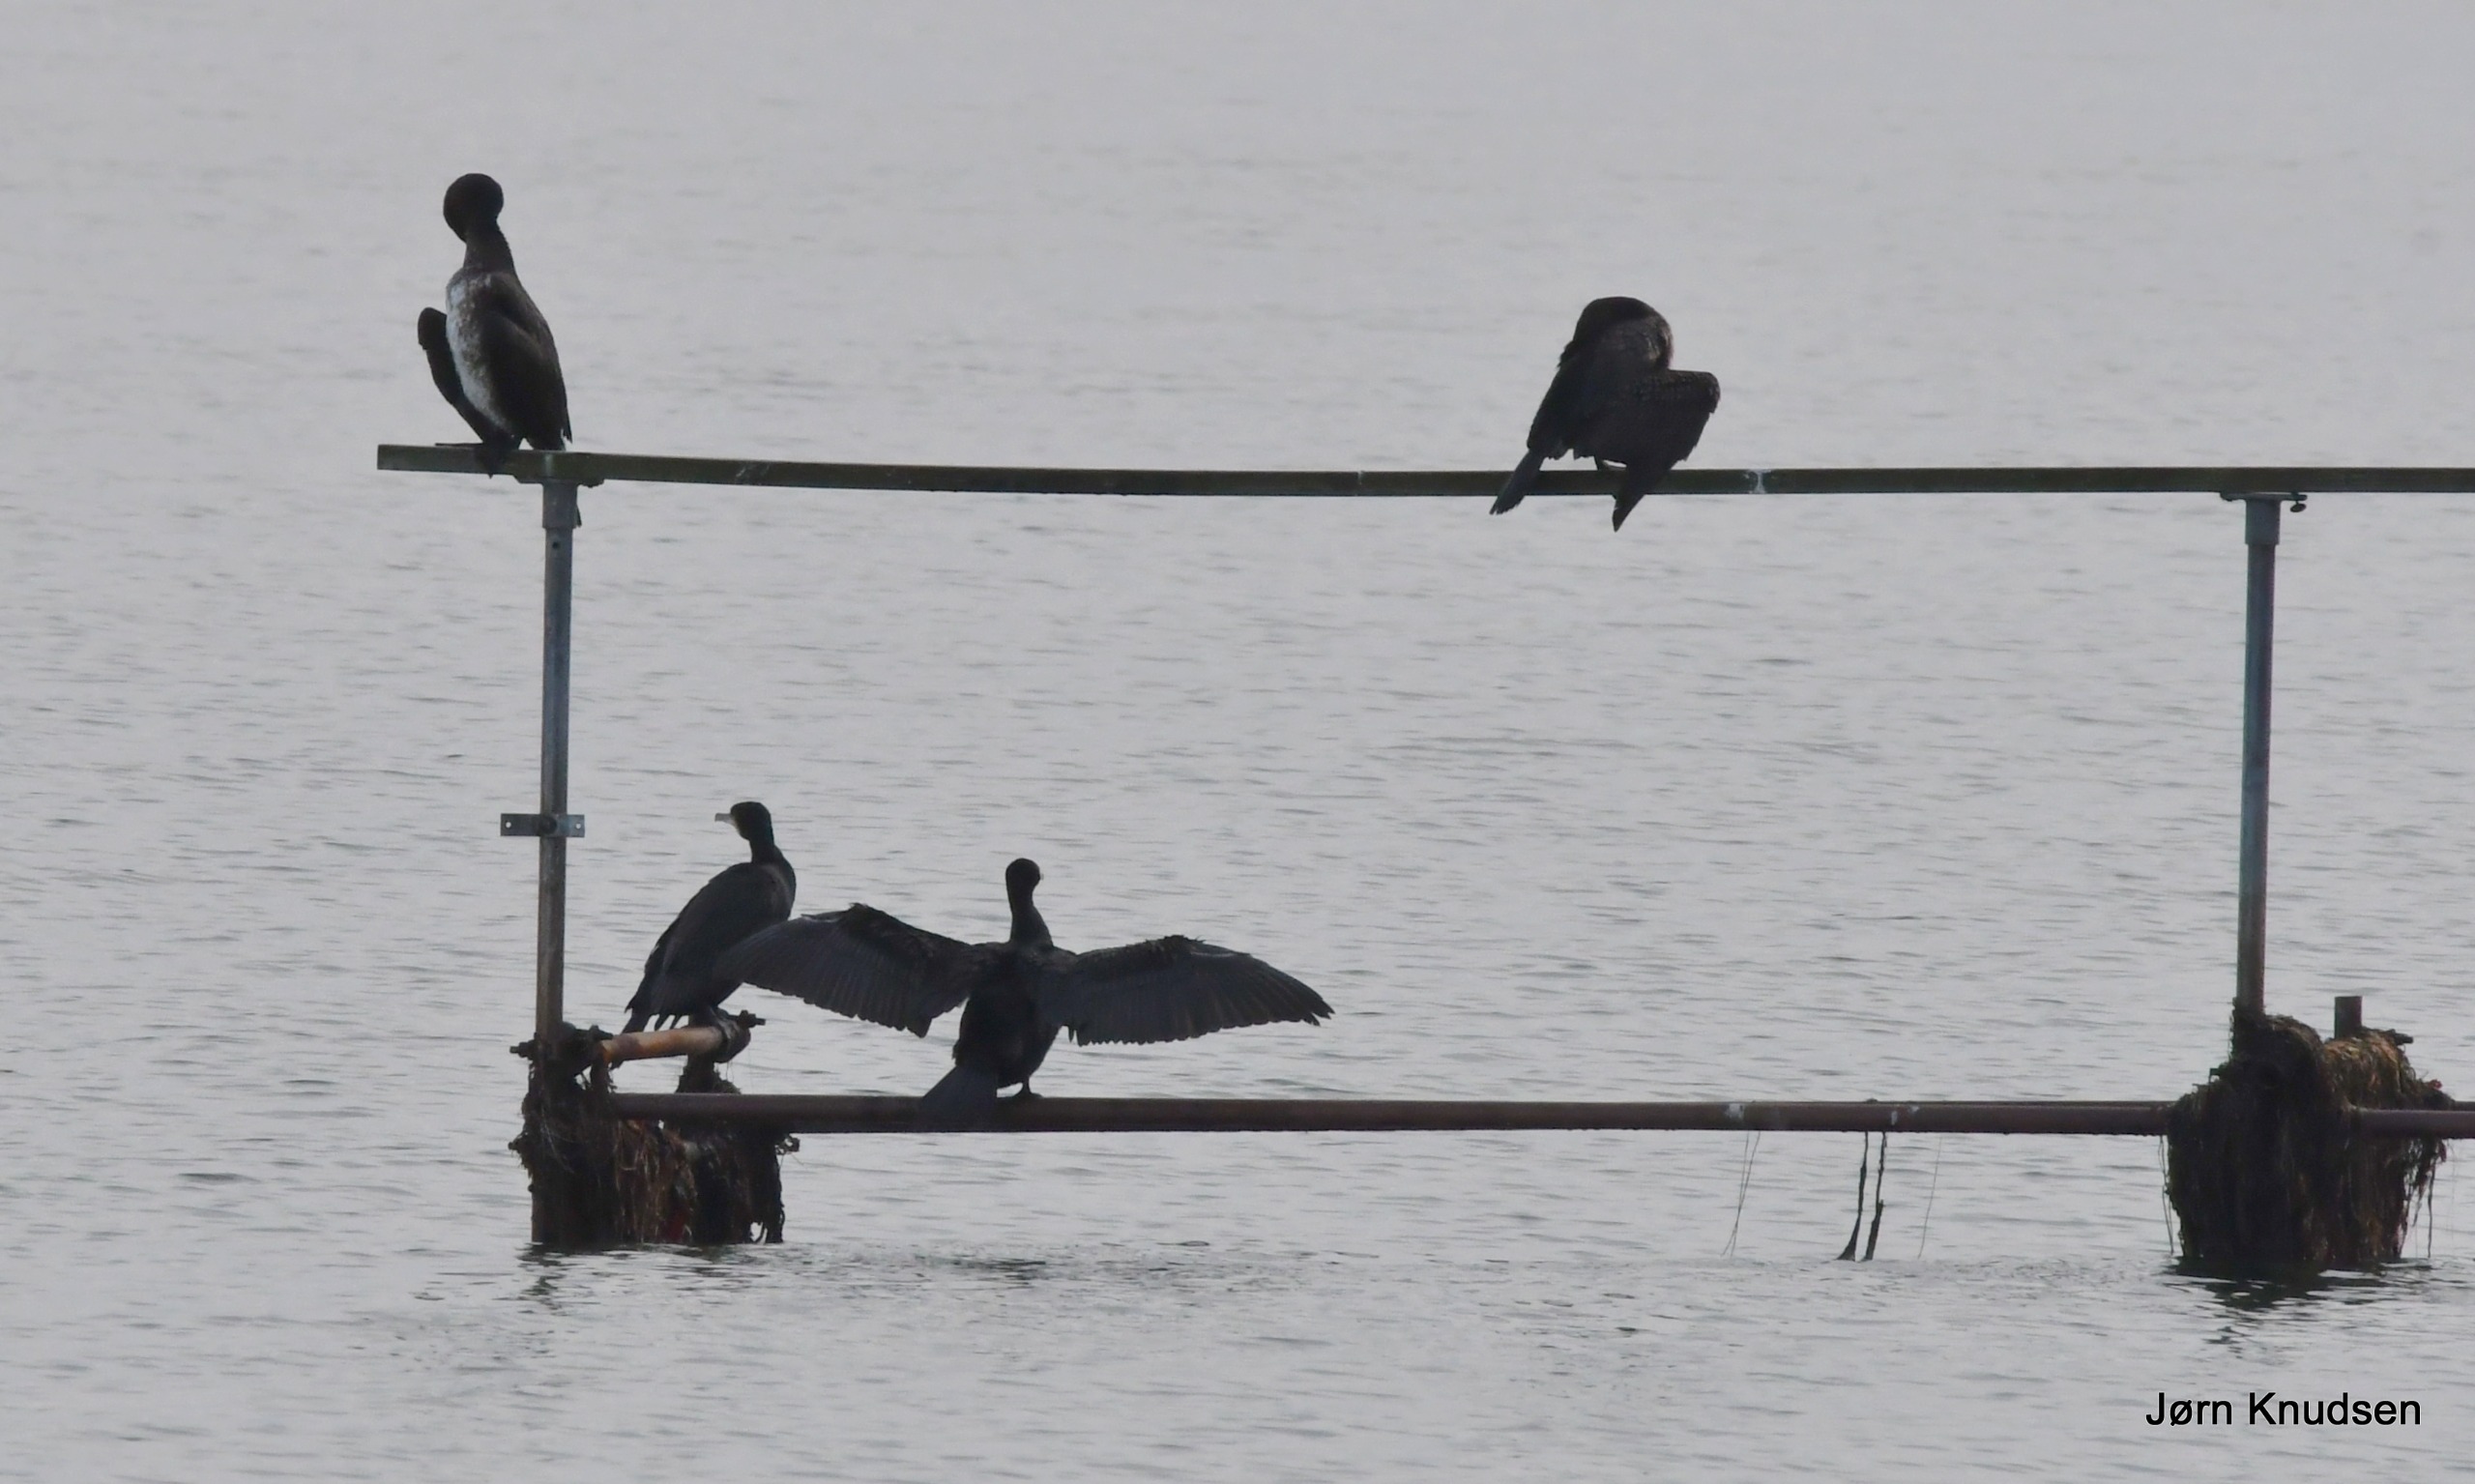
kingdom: Animalia
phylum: Chordata
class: Aves
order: Suliformes
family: Phalacrocoracidae
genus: Phalacrocorax
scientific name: Phalacrocorax carbo
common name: Skarv
